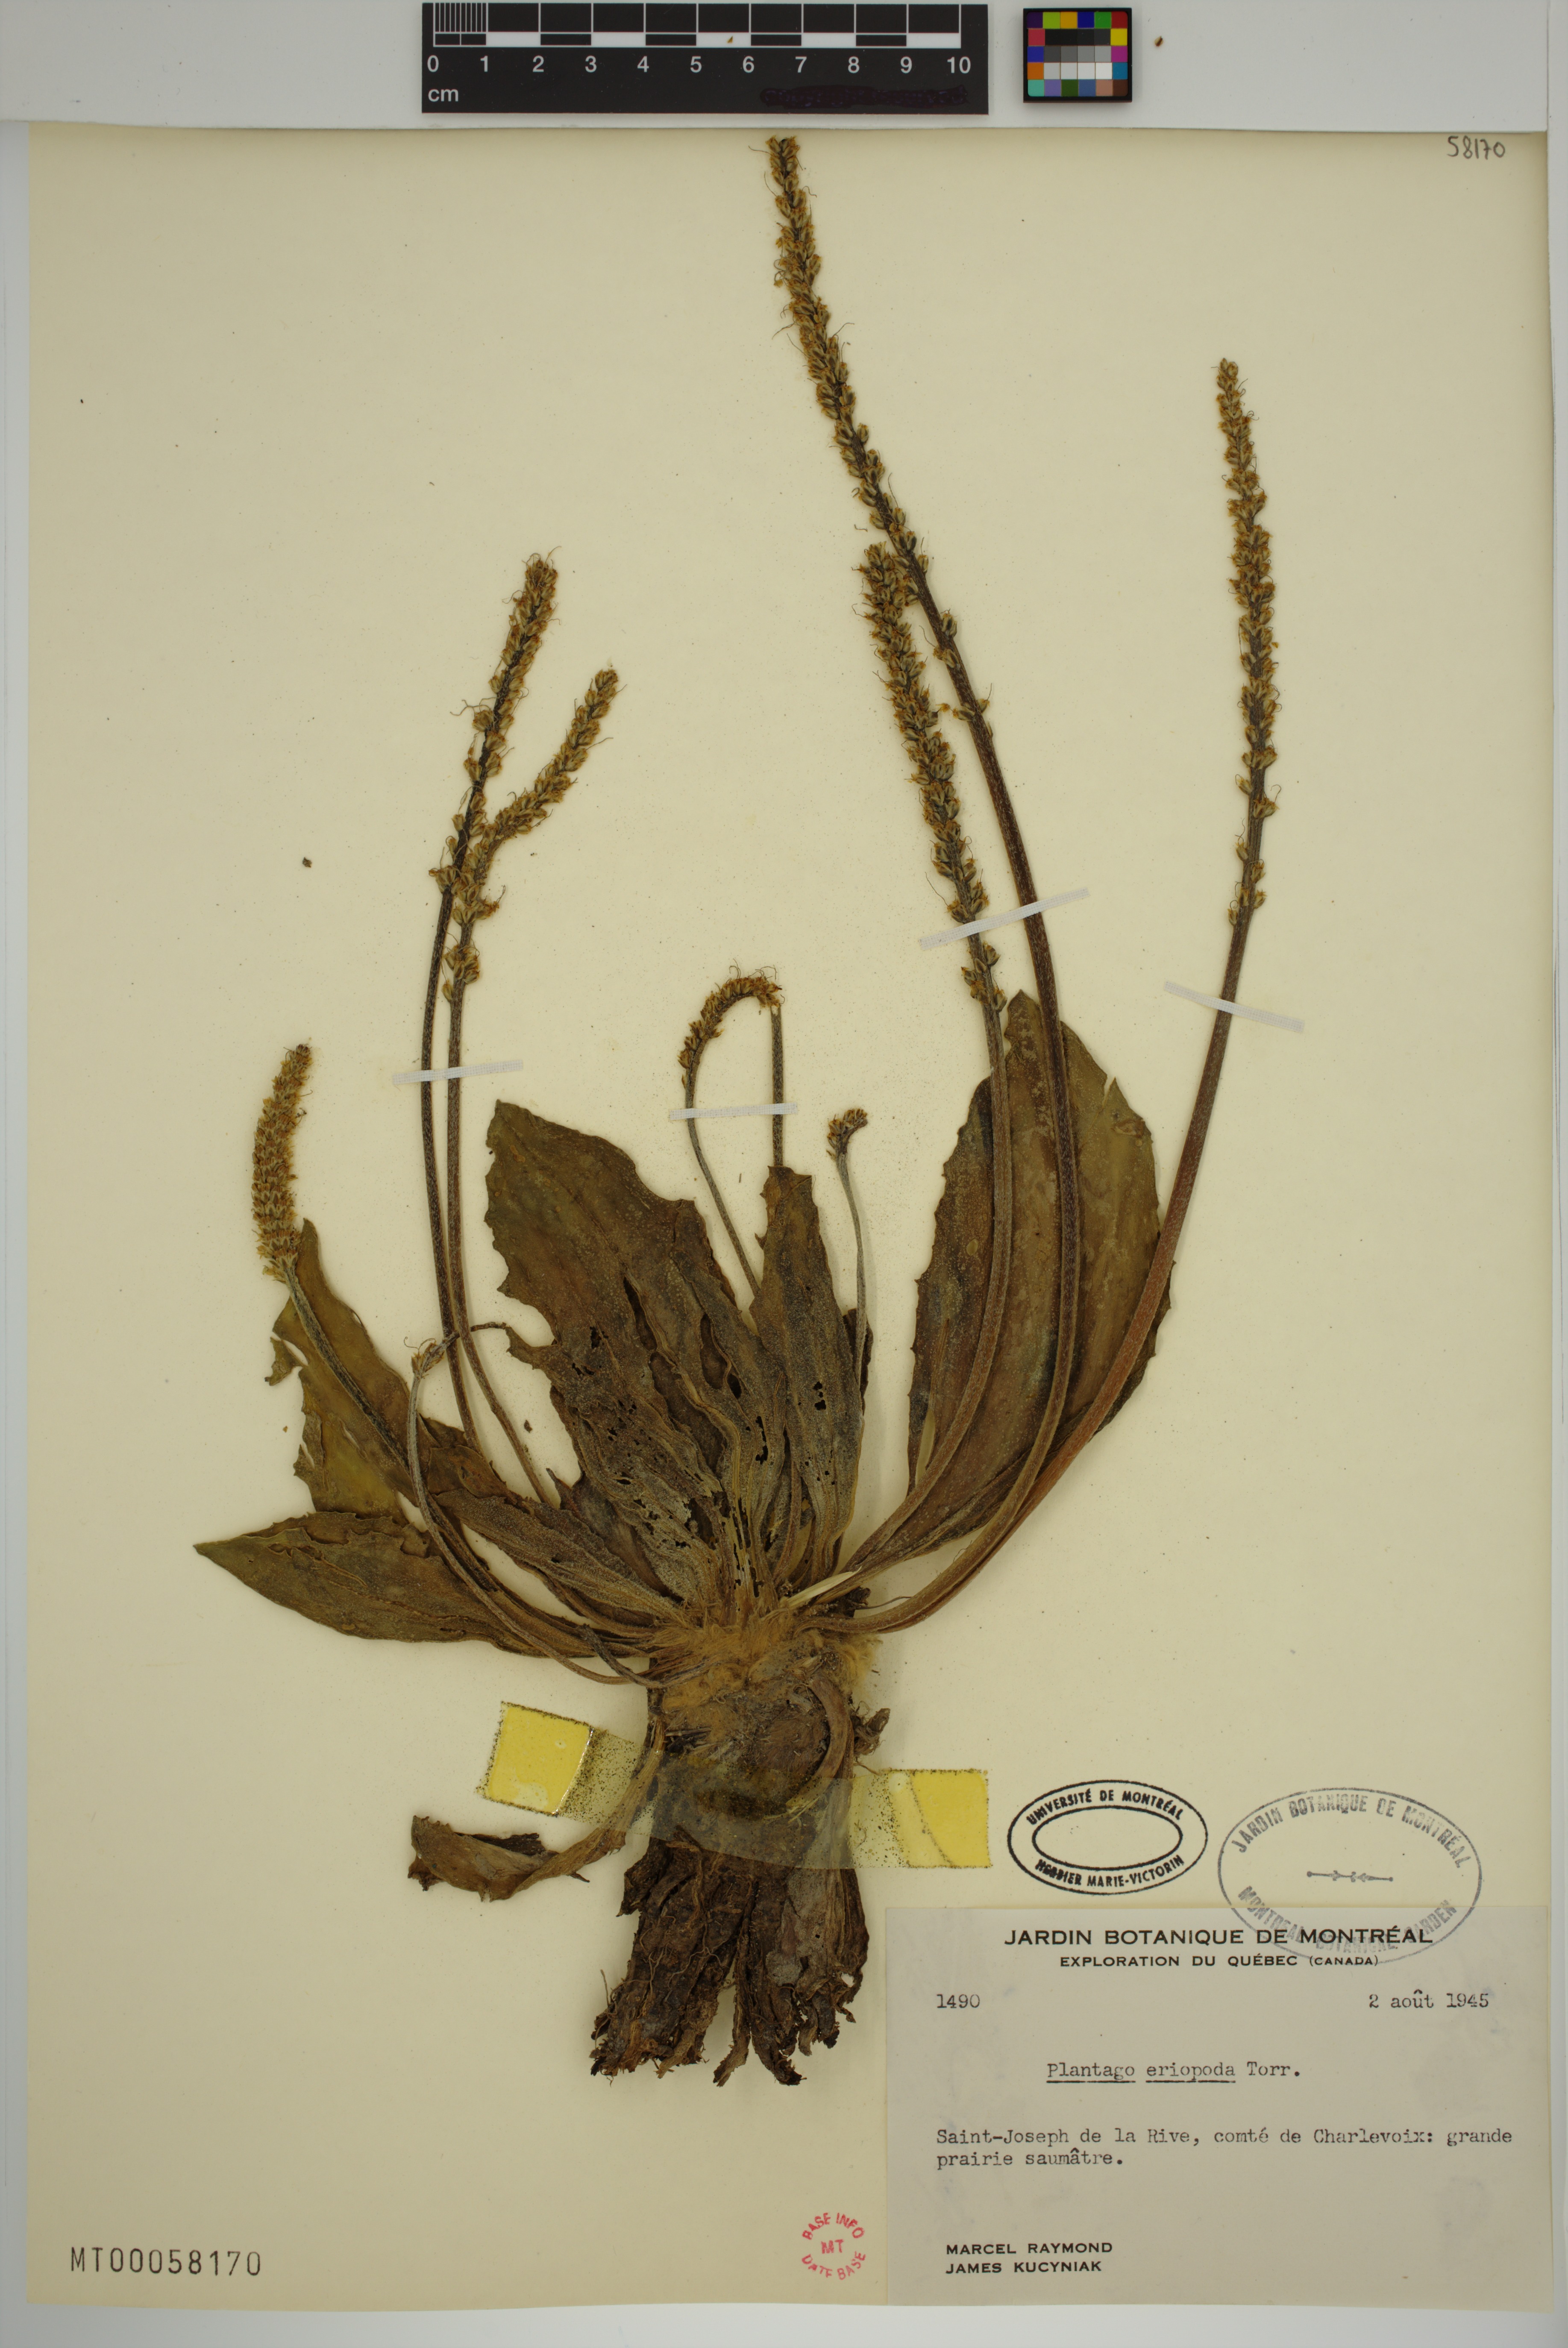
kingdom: Plantae
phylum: Tracheophyta
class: Magnoliopsida
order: Lamiales
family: Plantaginaceae
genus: Plantago
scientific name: Plantago eriopoda
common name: Alkali plantain
